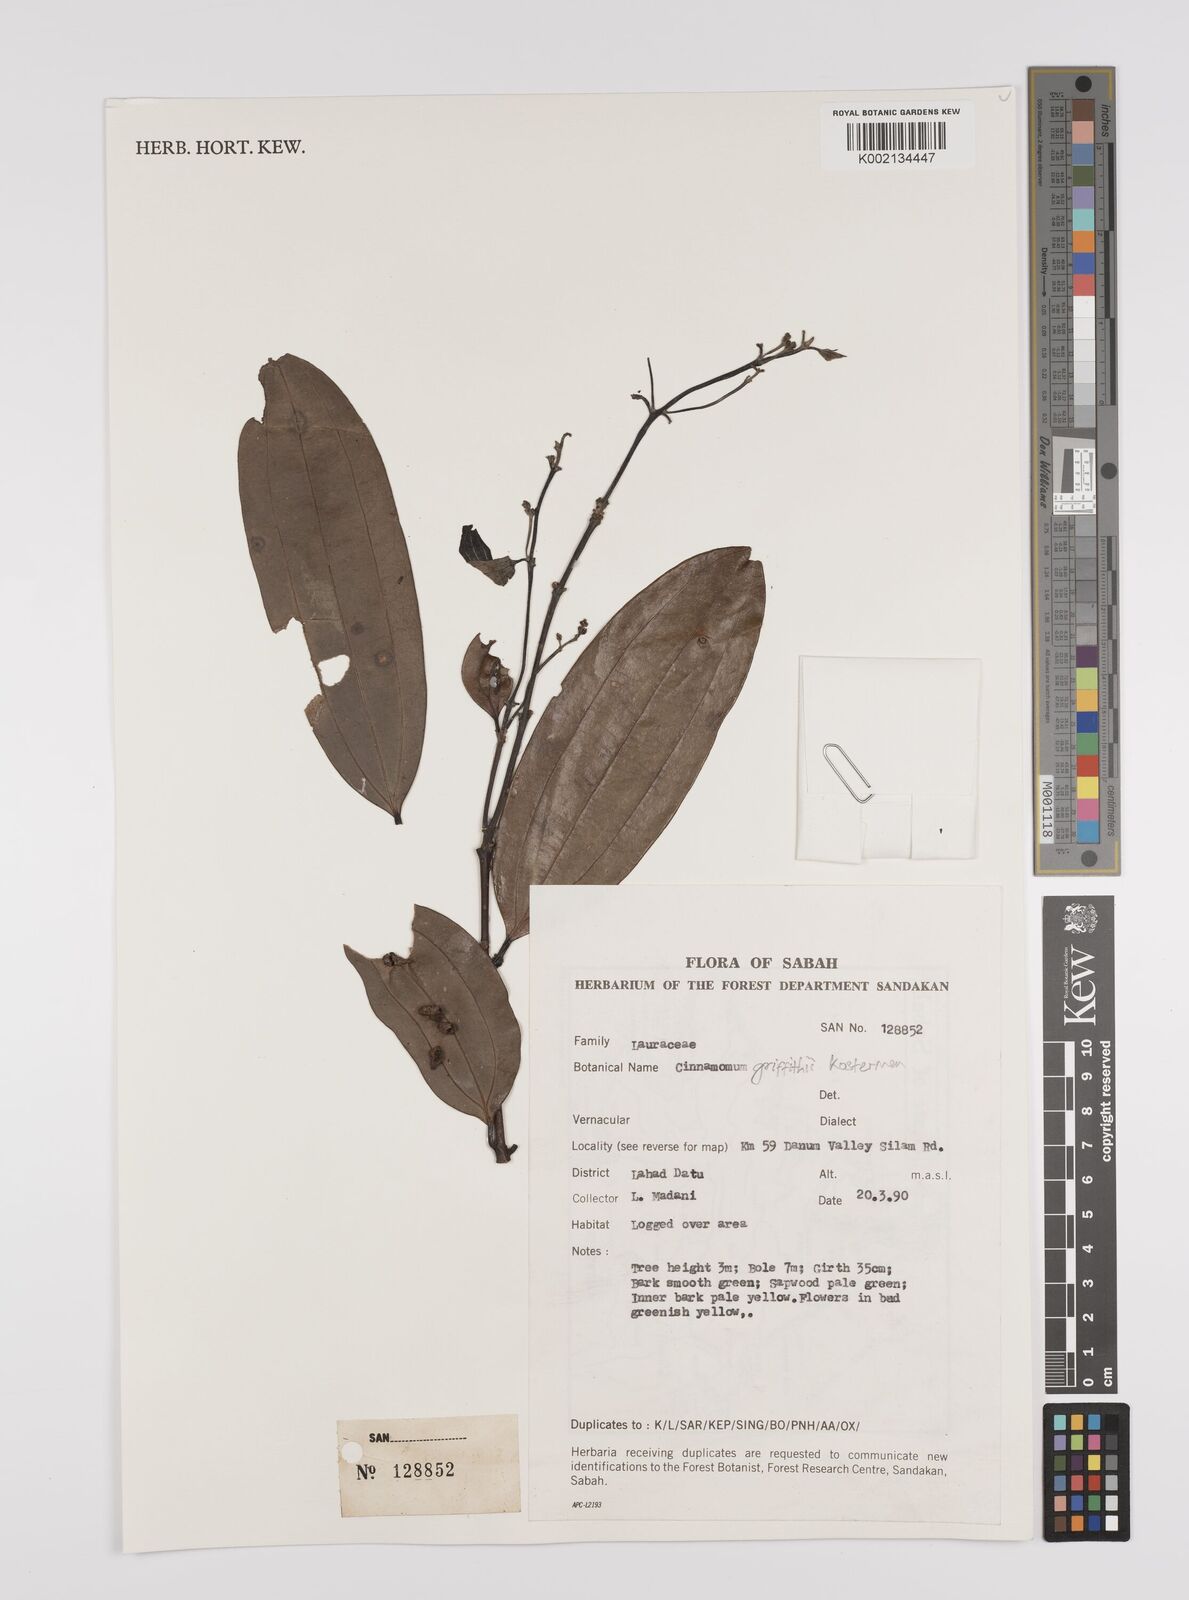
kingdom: Plantae
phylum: Tracheophyta
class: Magnoliopsida
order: Laurales
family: Lauraceae
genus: Cinnamomum
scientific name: Cinnamomum iners
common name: Wild cinnamon
